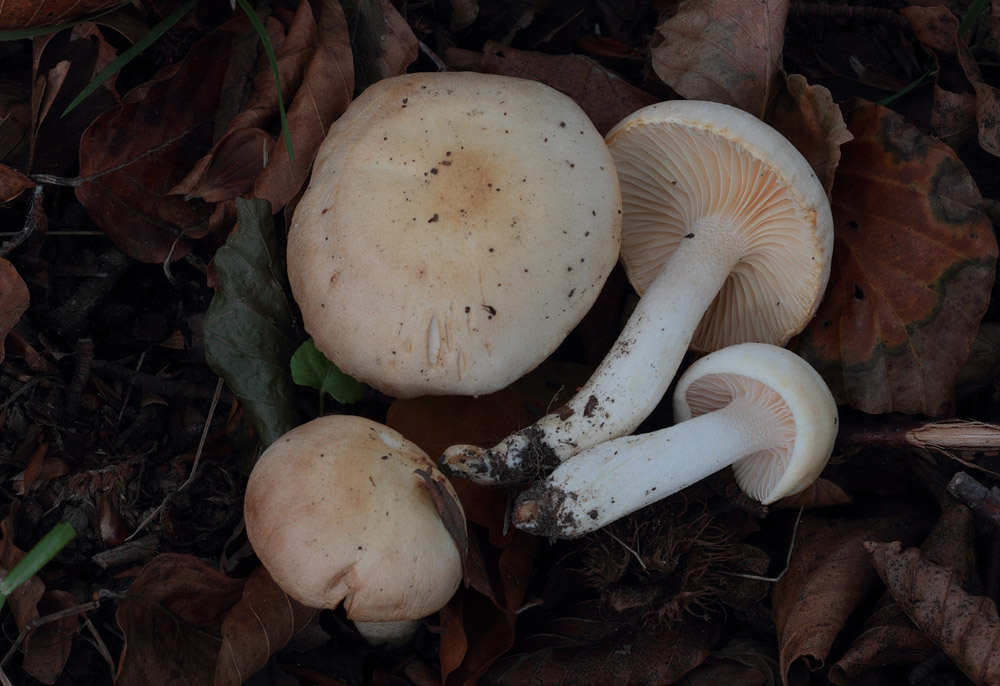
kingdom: Fungi
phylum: Basidiomycota
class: Agaricomycetes
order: Agaricales
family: Hygrophoraceae
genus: Hygrophorus
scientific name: Hygrophorus poetarum
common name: duftende sneglehat
